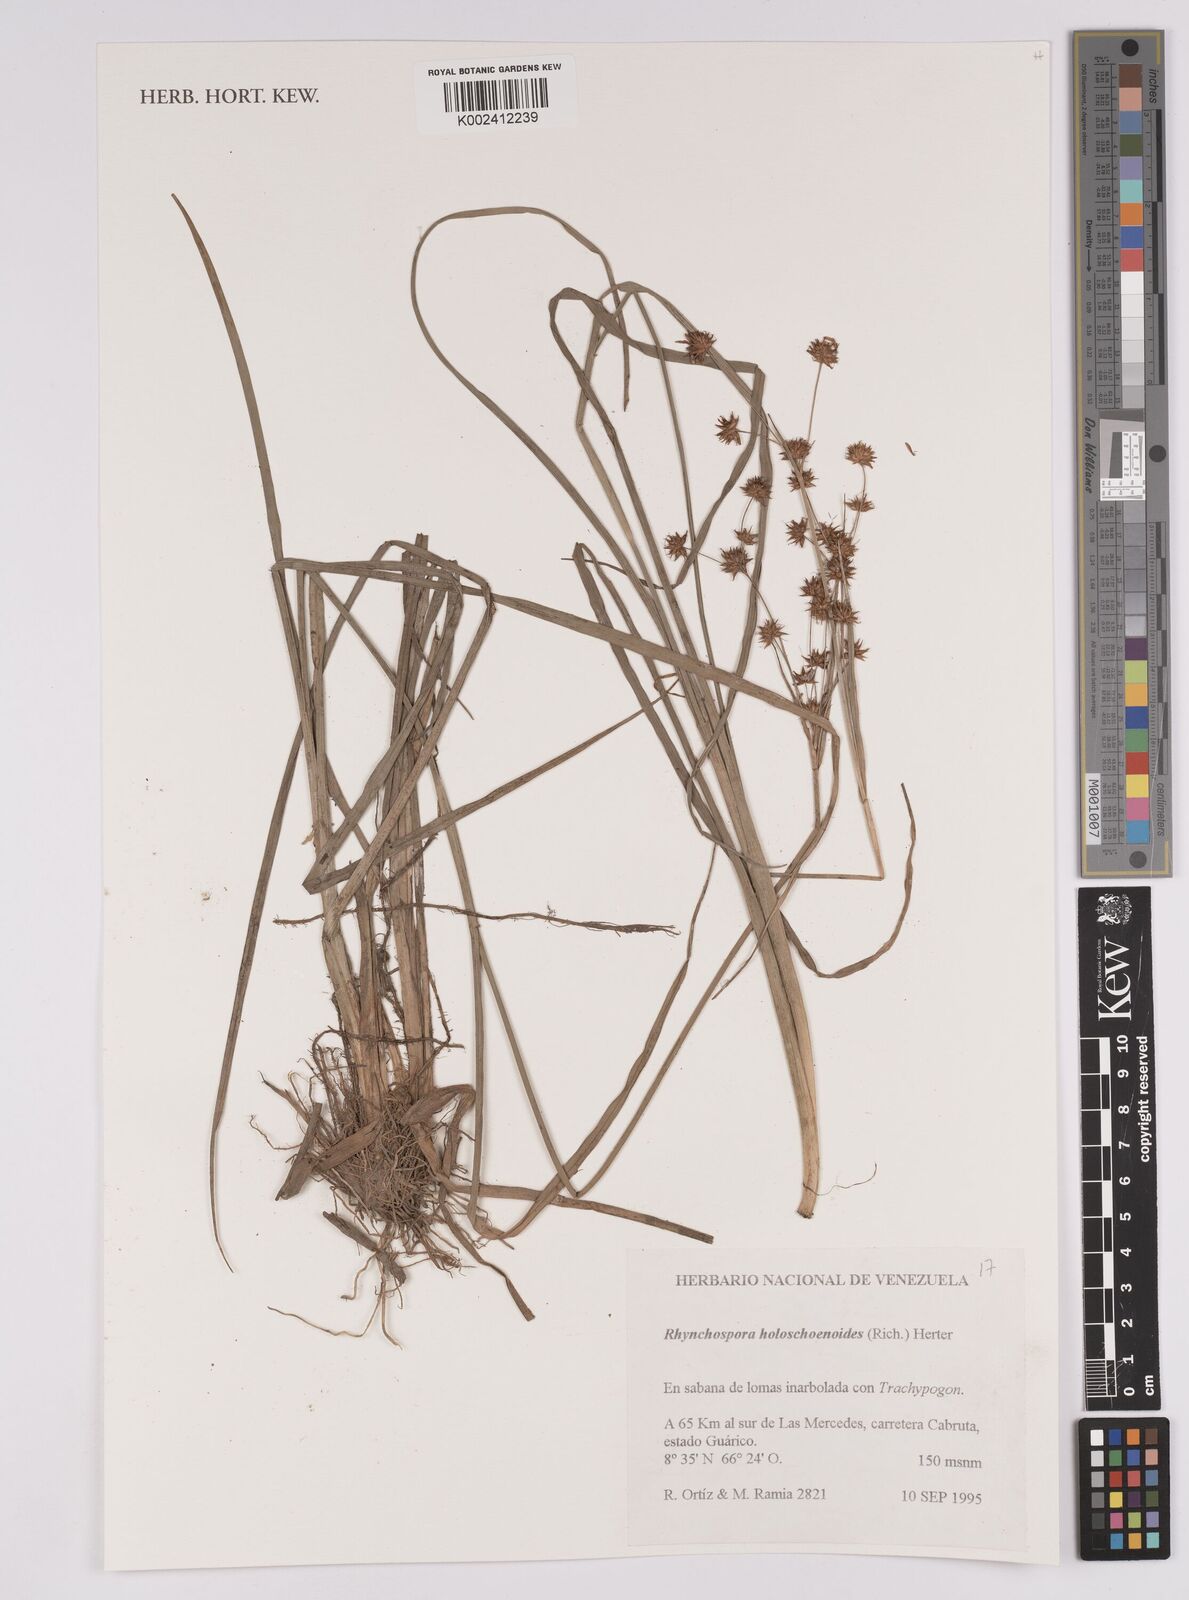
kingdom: Plantae
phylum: Tracheophyta
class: Liliopsida
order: Poales
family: Cyperaceae
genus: Rhynchospora
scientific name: Rhynchospora holoschoenoides
